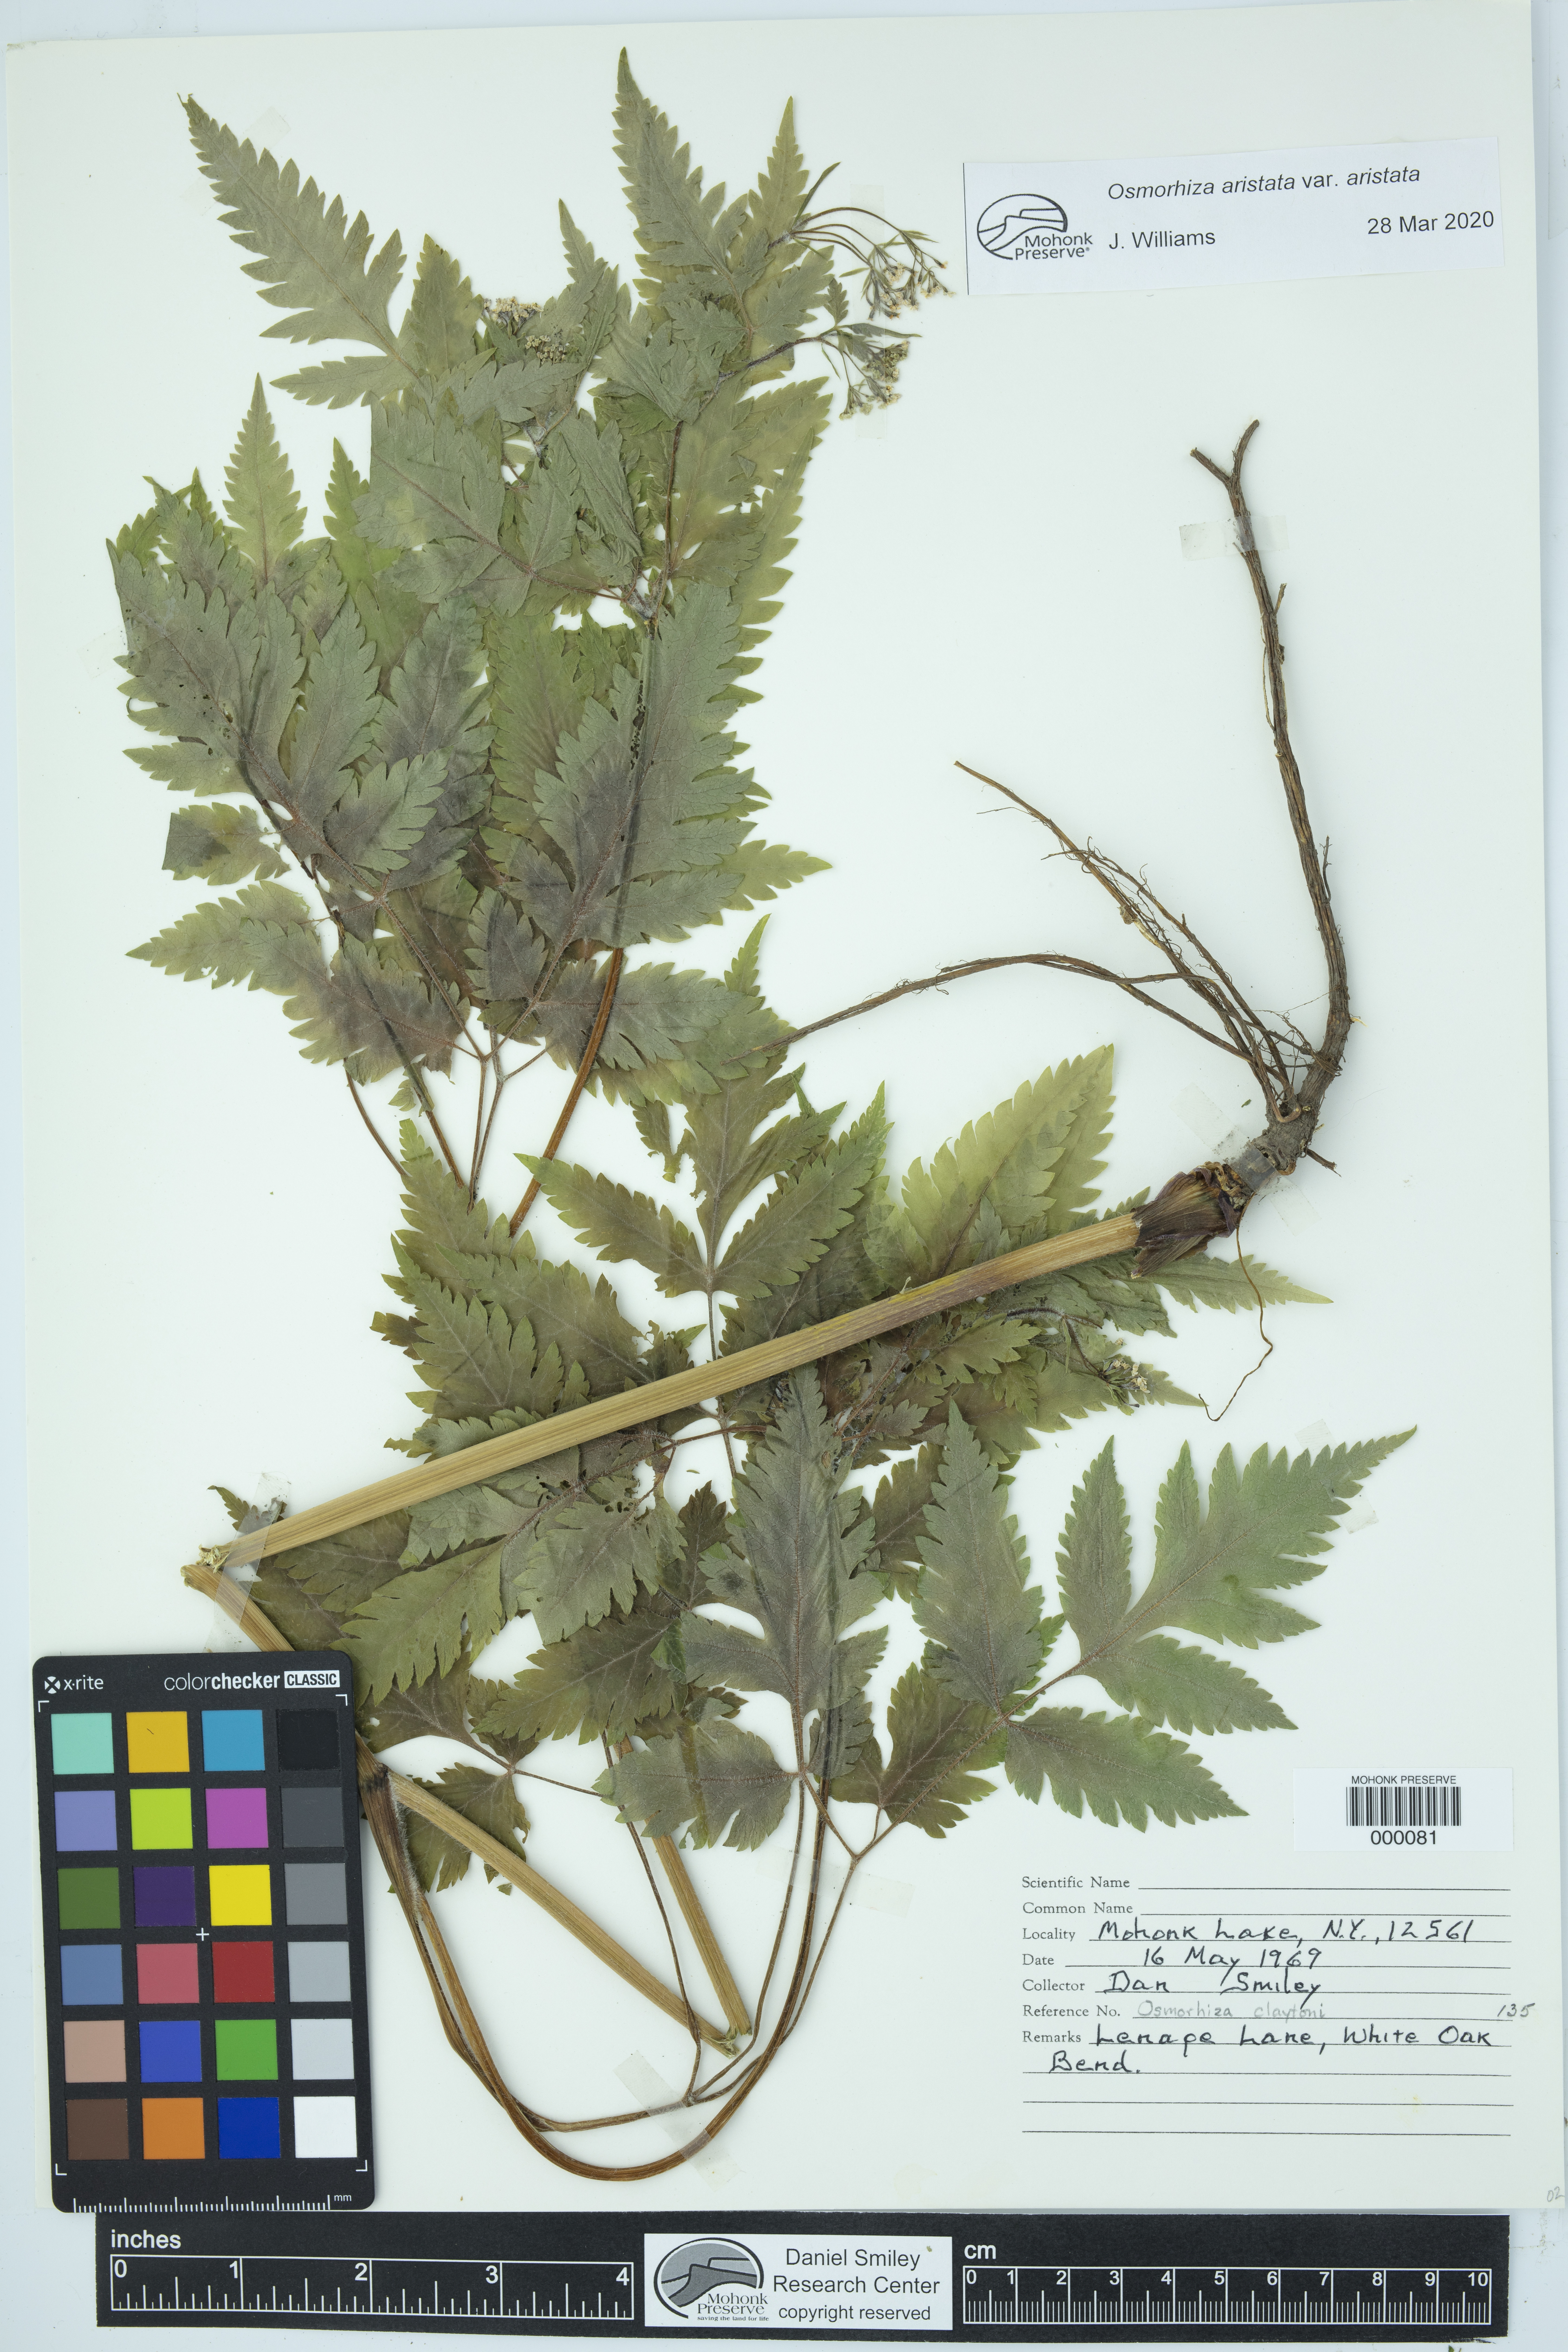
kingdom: Plantae
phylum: Tracheophyta
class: Magnoliopsida
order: Apiales
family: Apiaceae
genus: Osmorhiza
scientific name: Osmorhiza aristata
